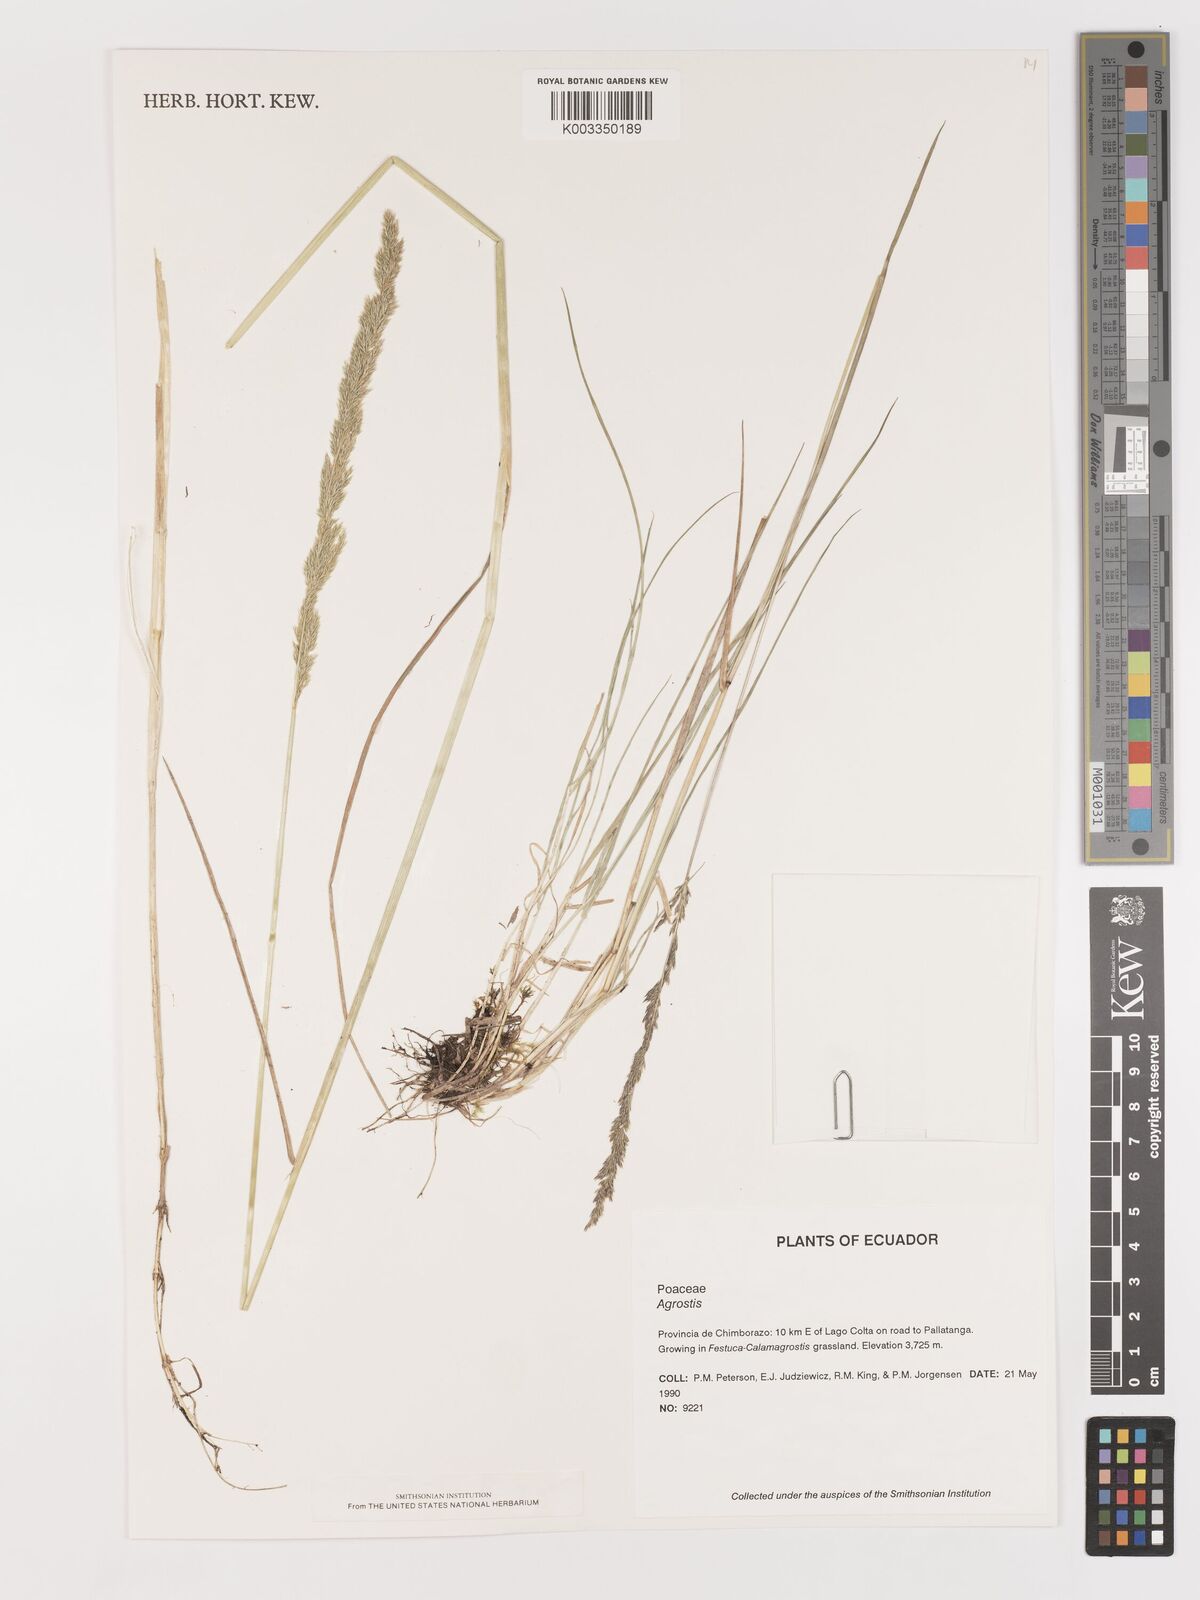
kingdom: Plantae
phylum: Tracheophyta
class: Liliopsida
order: Poales
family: Poaceae
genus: Agrostis
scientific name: Agrostis
